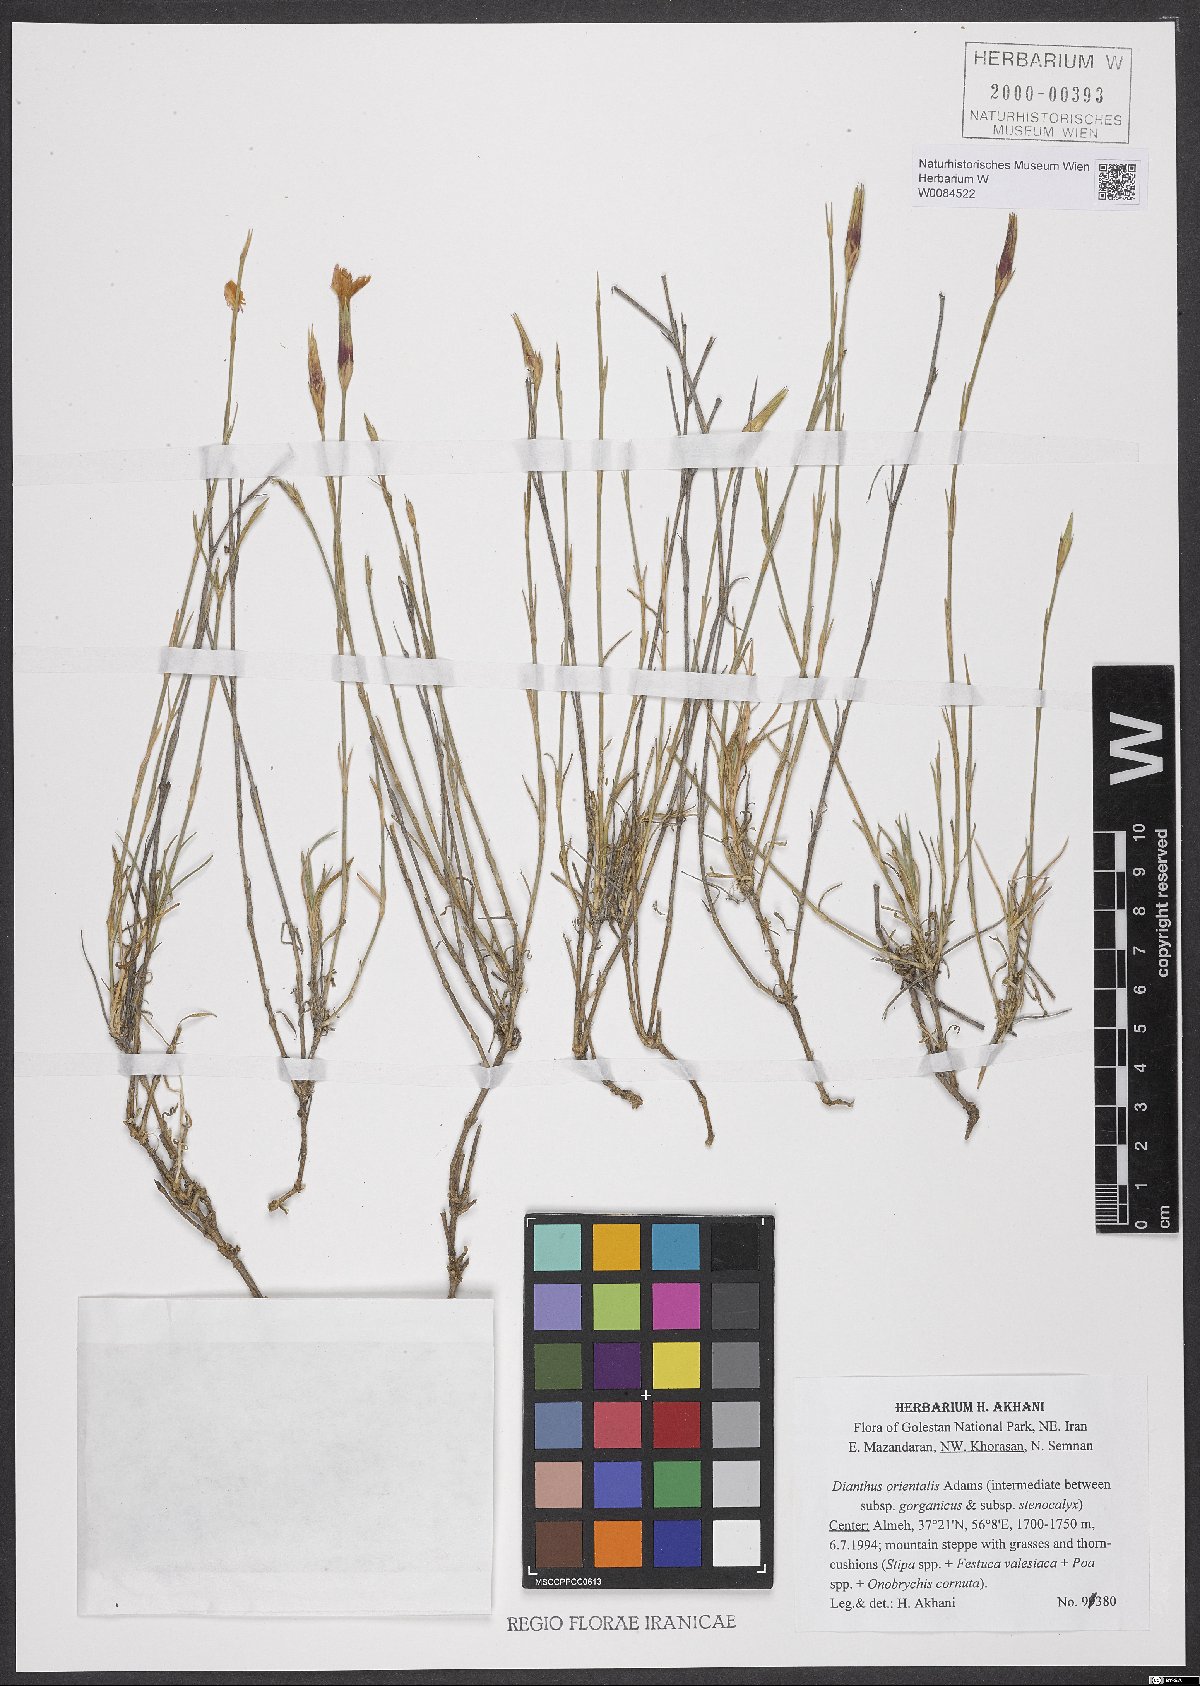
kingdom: Plantae
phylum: Tracheophyta
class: Magnoliopsida
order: Caryophyllales
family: Caryophyllaceae
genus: Dianthus
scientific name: Dianthus orientalis
